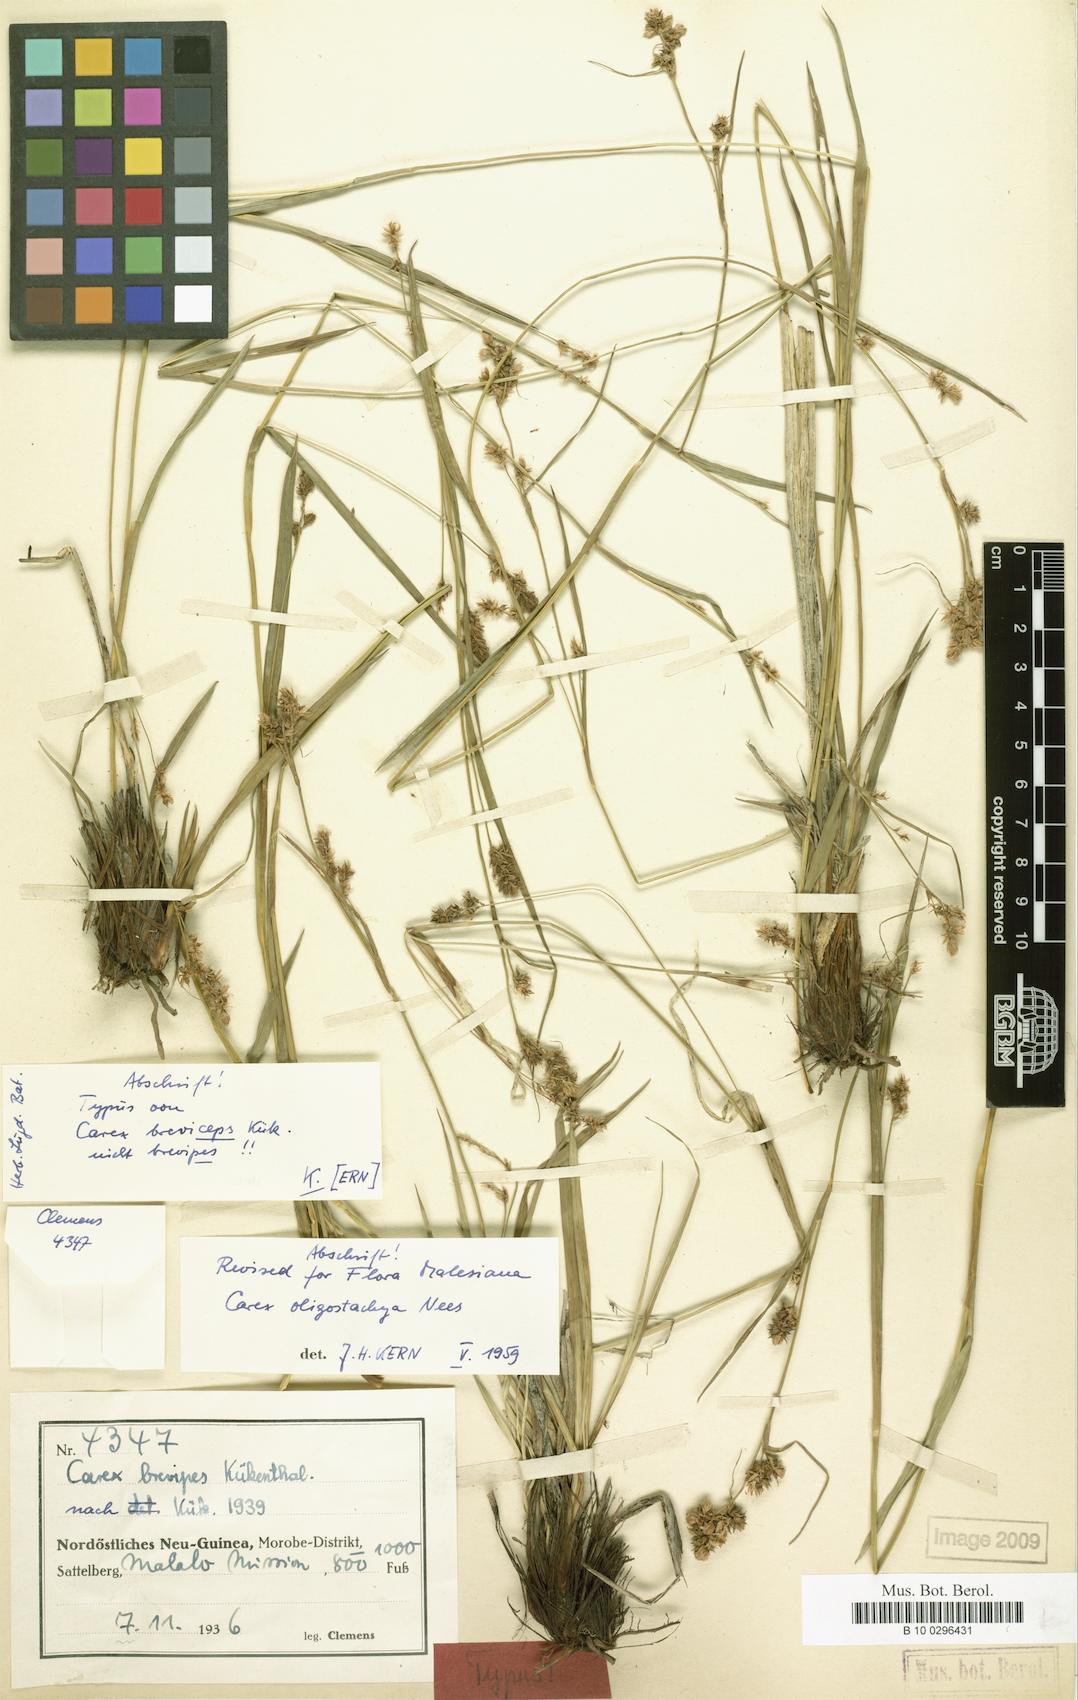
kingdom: Plantae
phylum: Tracheophyta
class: Liliopsida
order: Poales
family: Cyperaceae
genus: Carex
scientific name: Carex oligostachya
